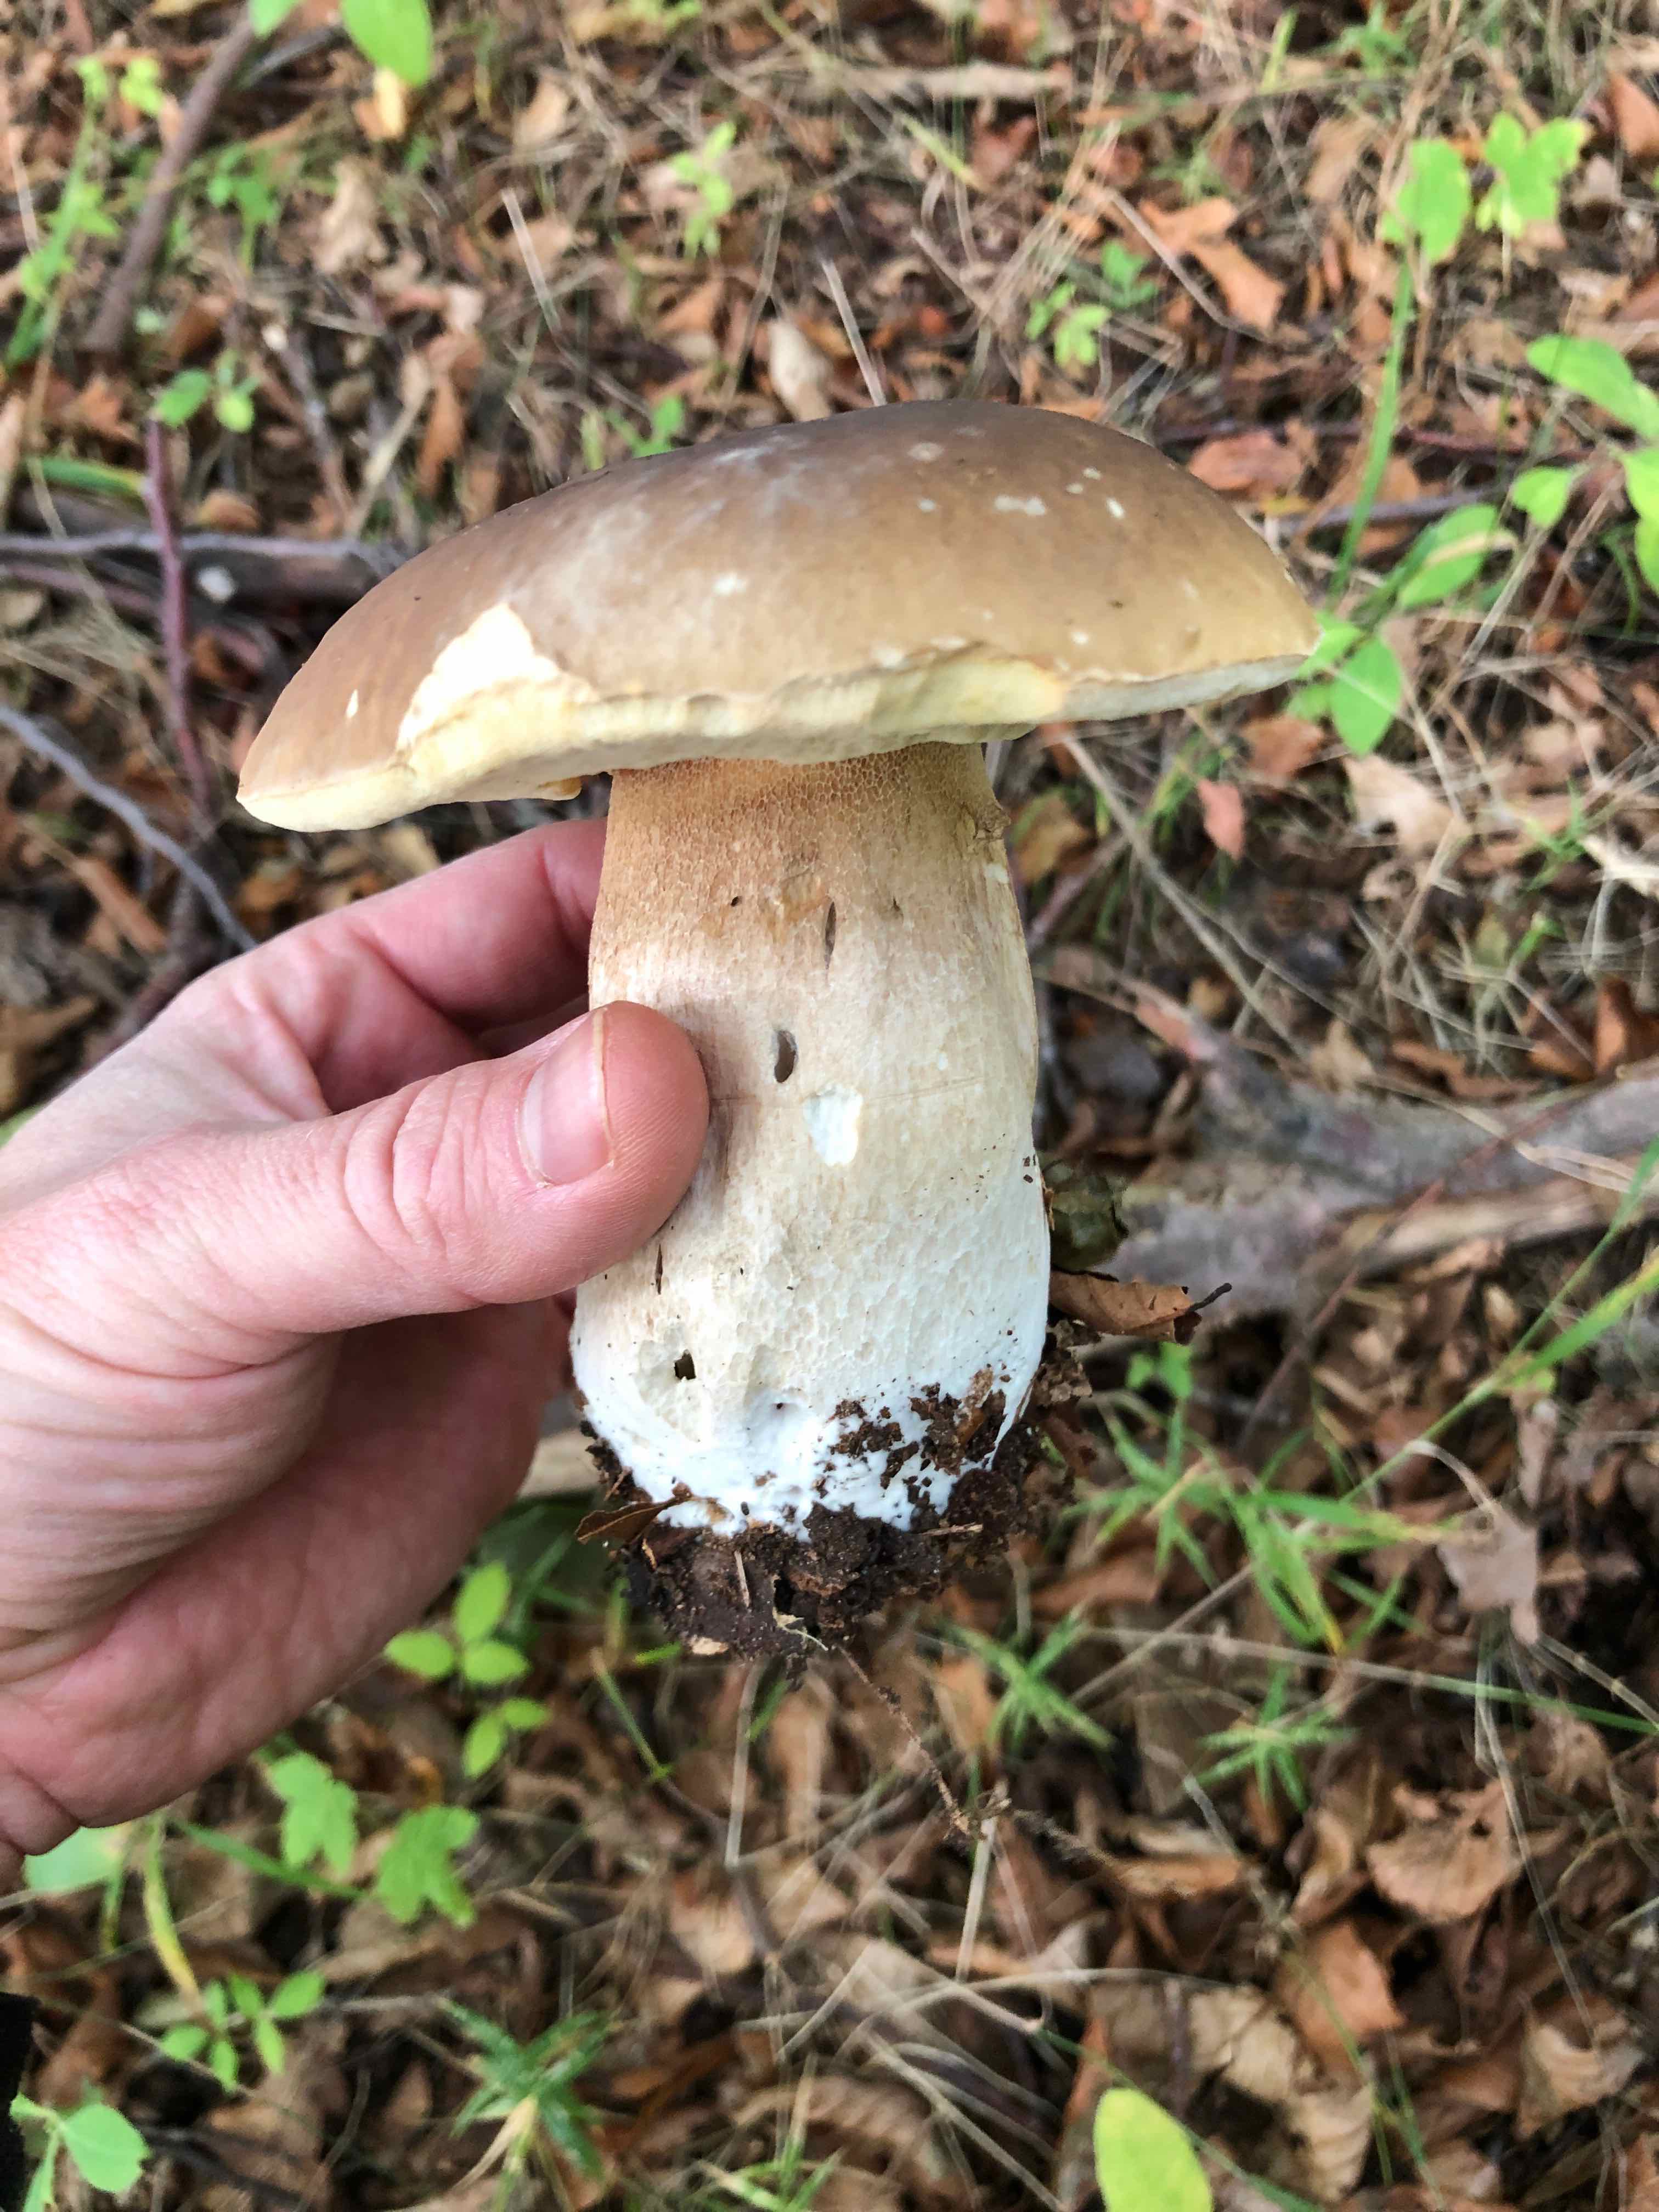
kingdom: Fungi
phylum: Basidiomycota
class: Agaricomycetes
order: Boletales
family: Boletaceae
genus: Boletus
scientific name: Boletus edulis
